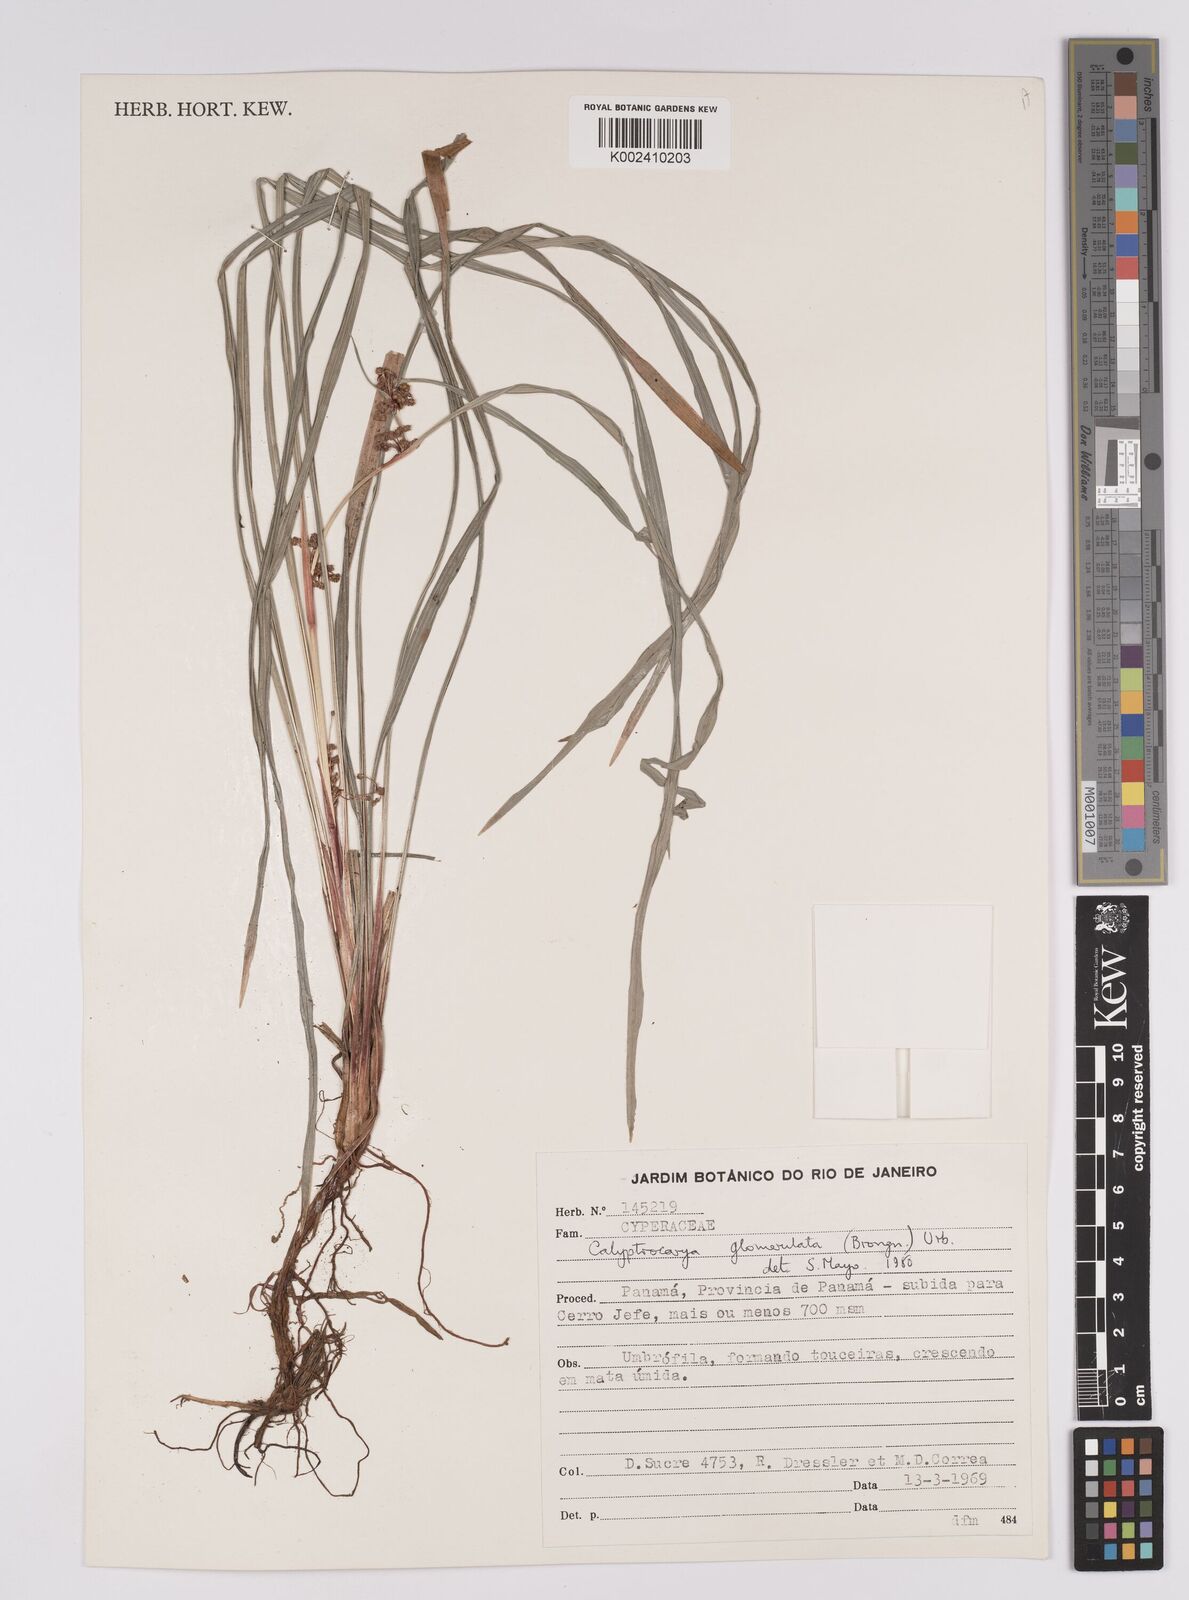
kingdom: Plantae
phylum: Tracheophyta
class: Liliopsida
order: Poales
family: Cyperaceae
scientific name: Cyperaceae
